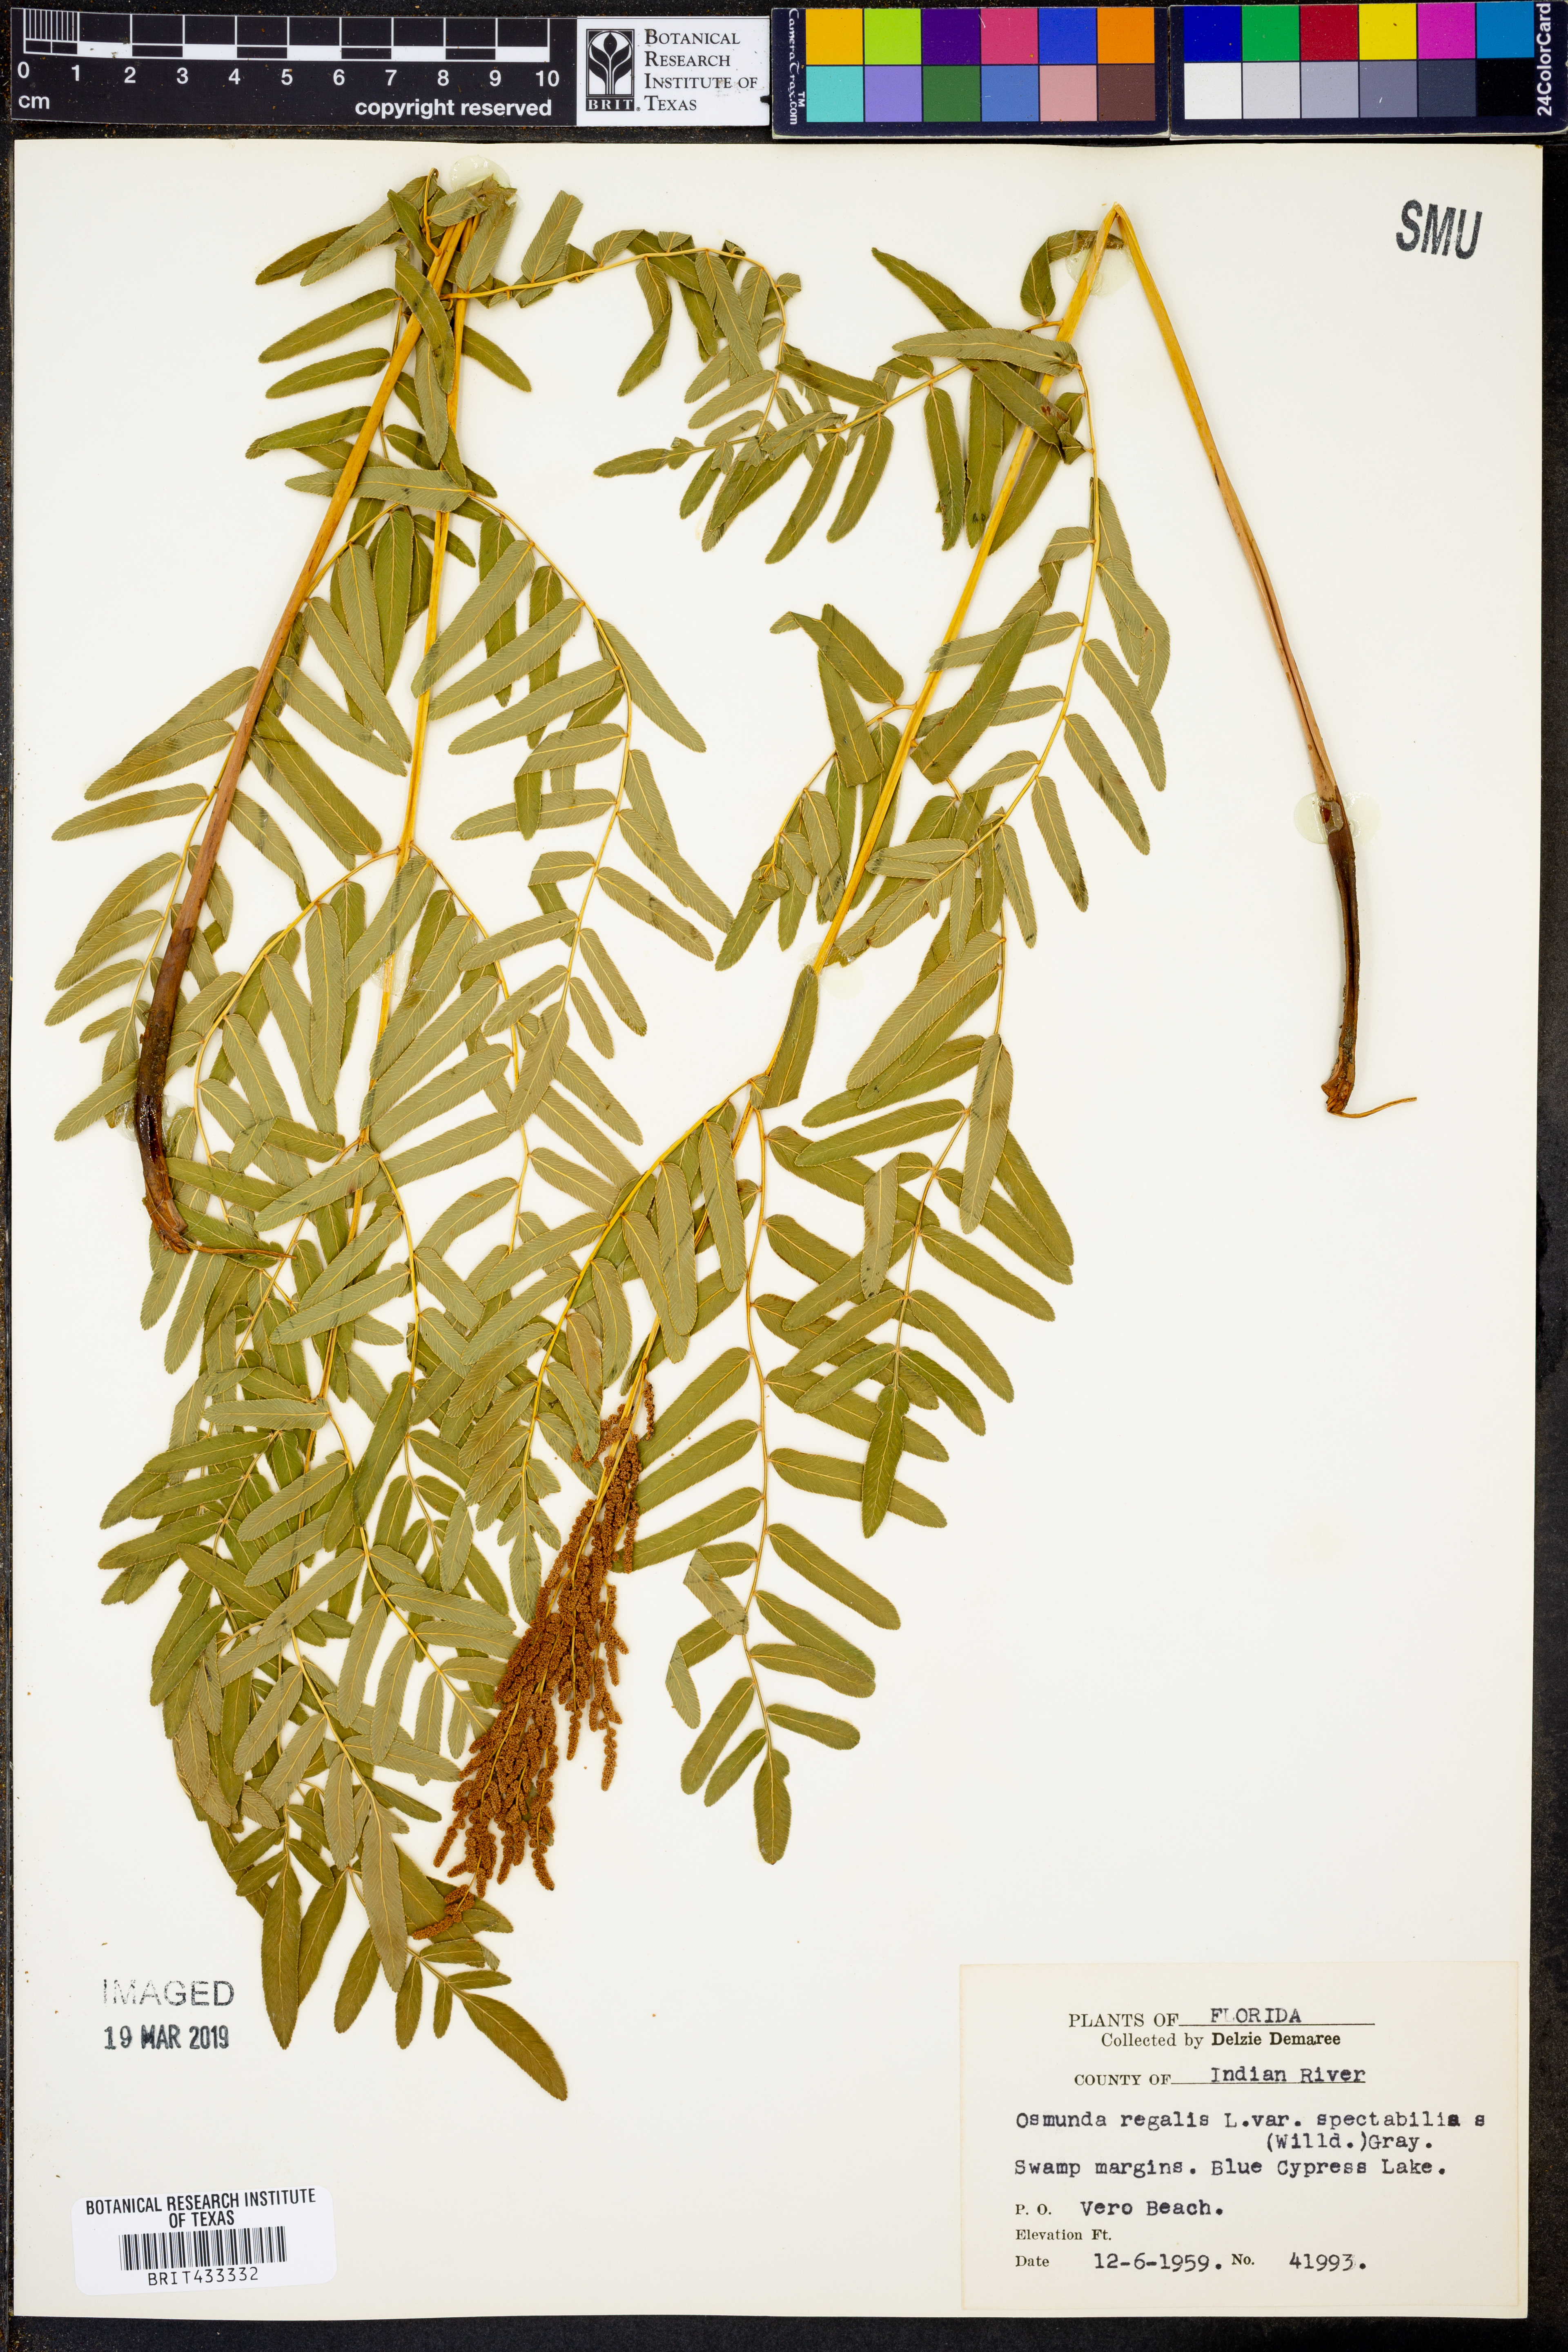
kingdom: Plantae
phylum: Tracheophyta
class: Polypodiopsida
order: Osmundales
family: Osmundaceae
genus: Osmunda
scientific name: Osmunda spectabilis
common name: American royal fern
